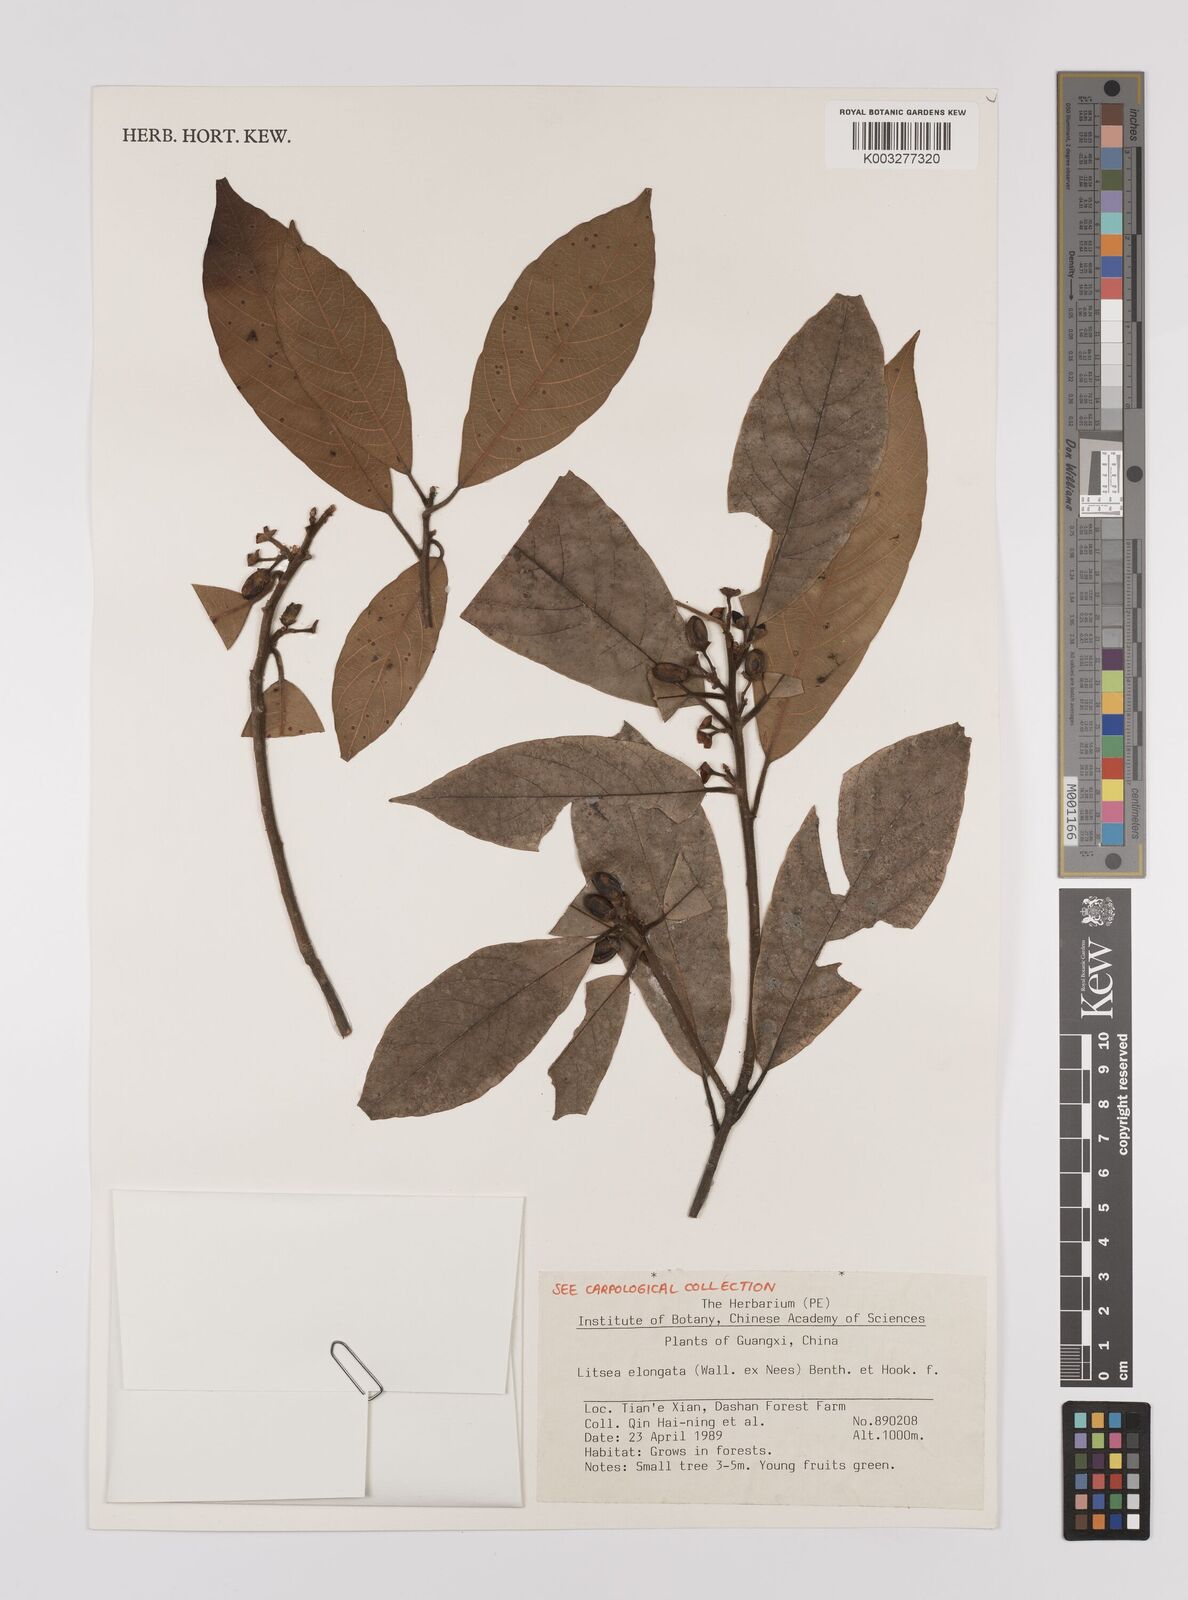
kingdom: Plantae
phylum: Tracheophyta
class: Magnoliopsida
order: Laurales
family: Lauraceae
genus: Litsea
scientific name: Litsea elongata
